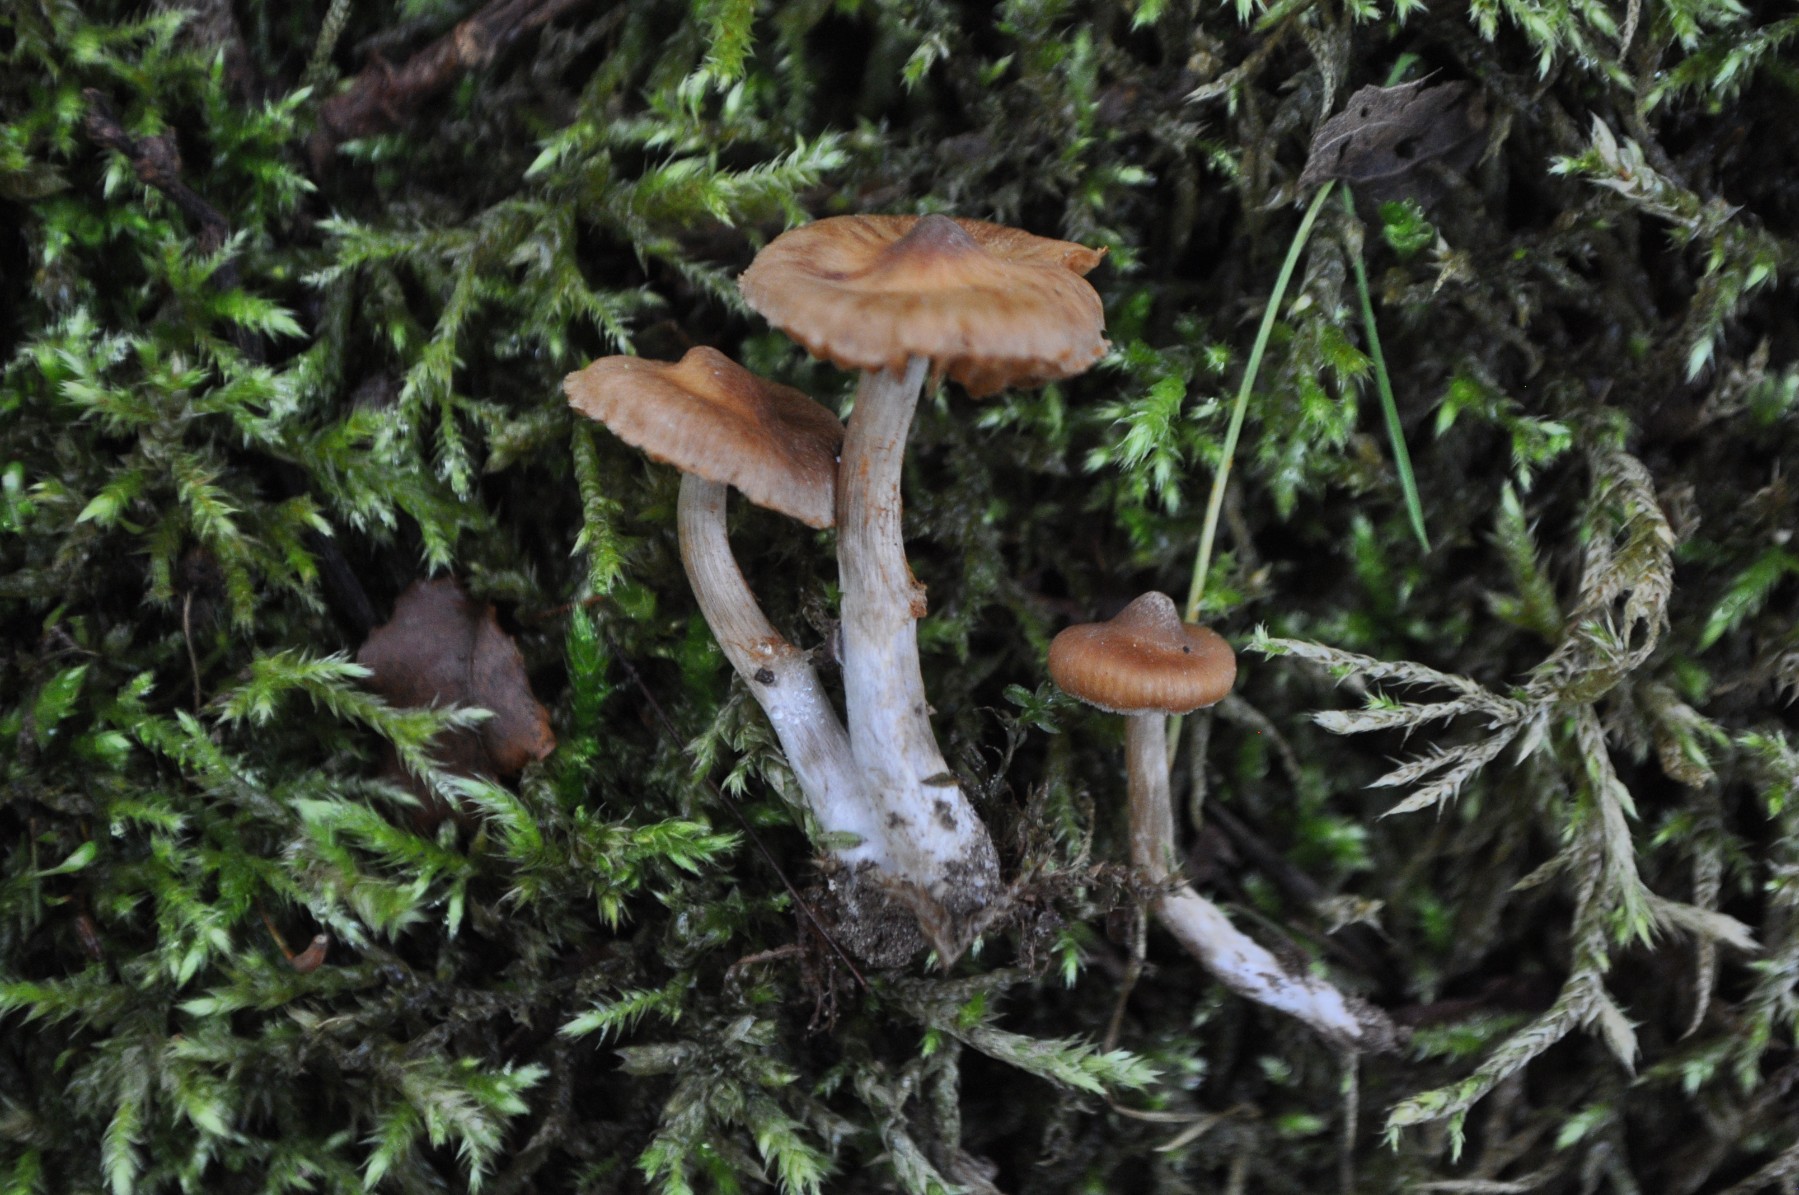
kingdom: Fungi
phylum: Basidiomycota
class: Agaricomycetes
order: Agaricales
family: Cortinariaceae
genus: Cortinarius
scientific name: Cortinarius
